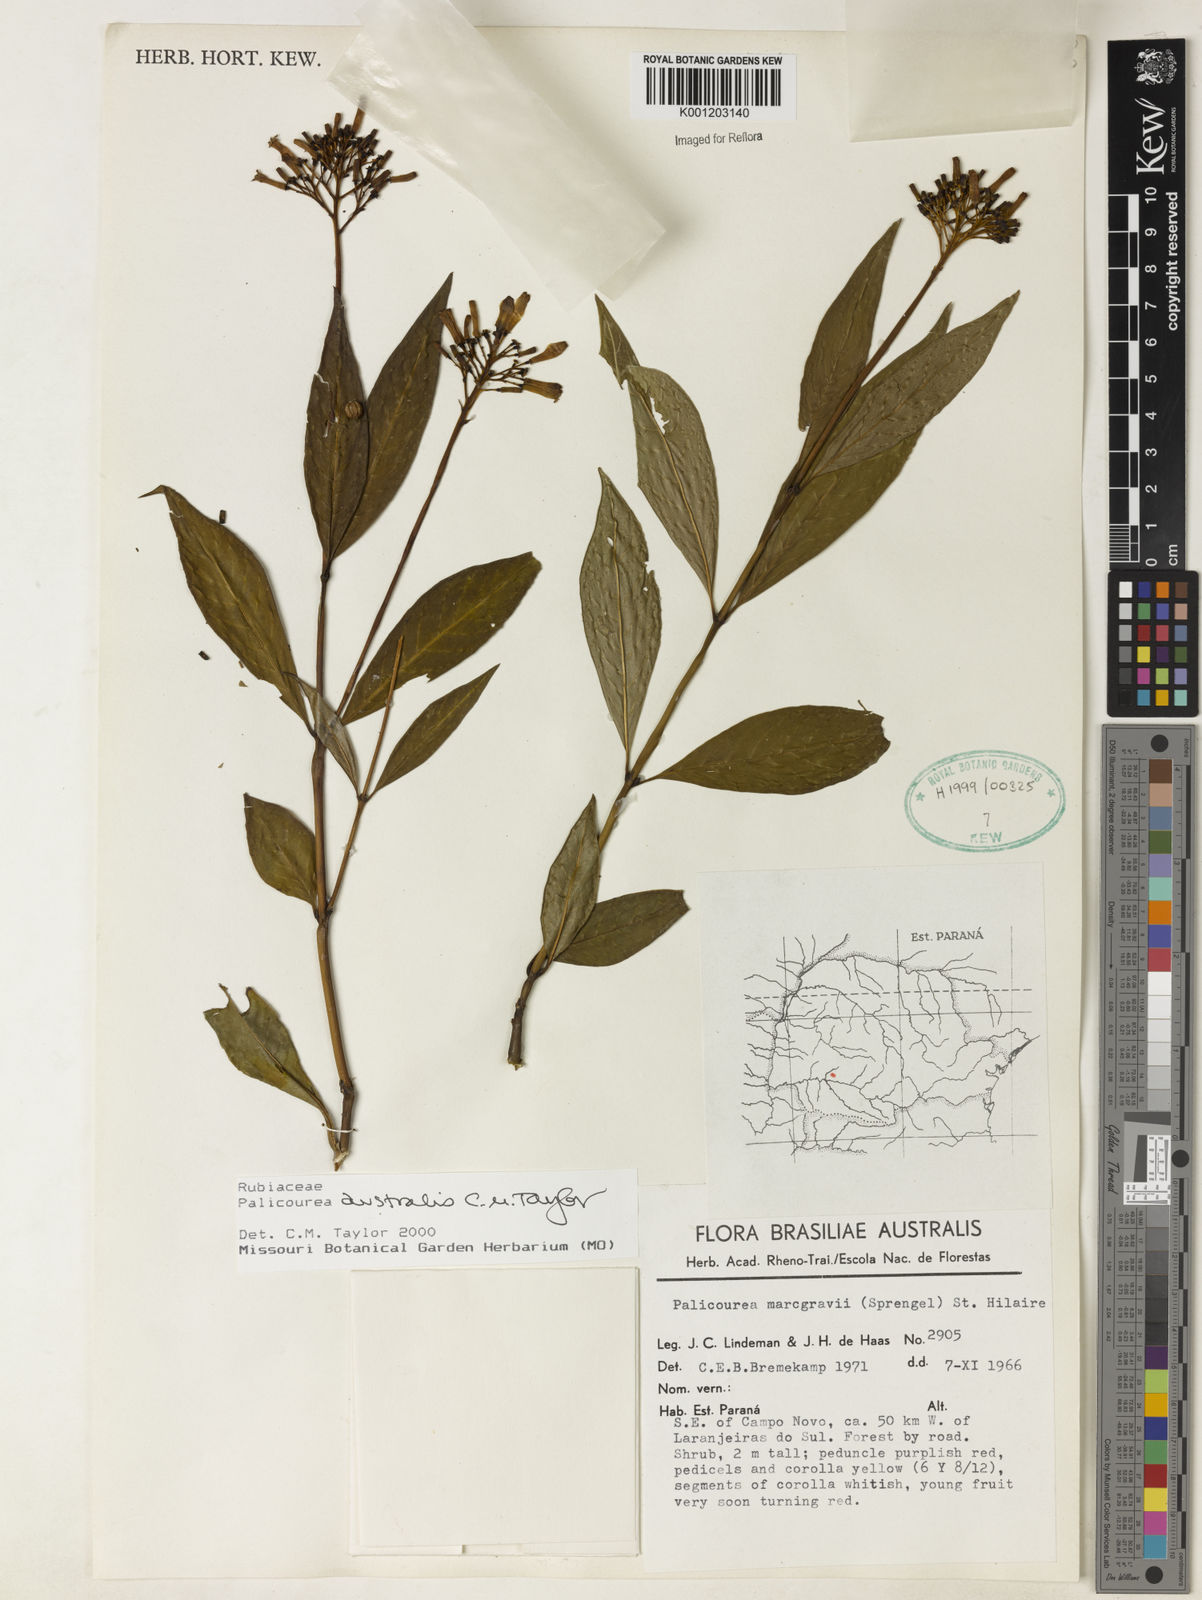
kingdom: Plantae
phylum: Tracheophyta
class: Magnoliopsida
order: Gentianales
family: Rubiaceae
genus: Palicourea
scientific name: Palicourea australis
